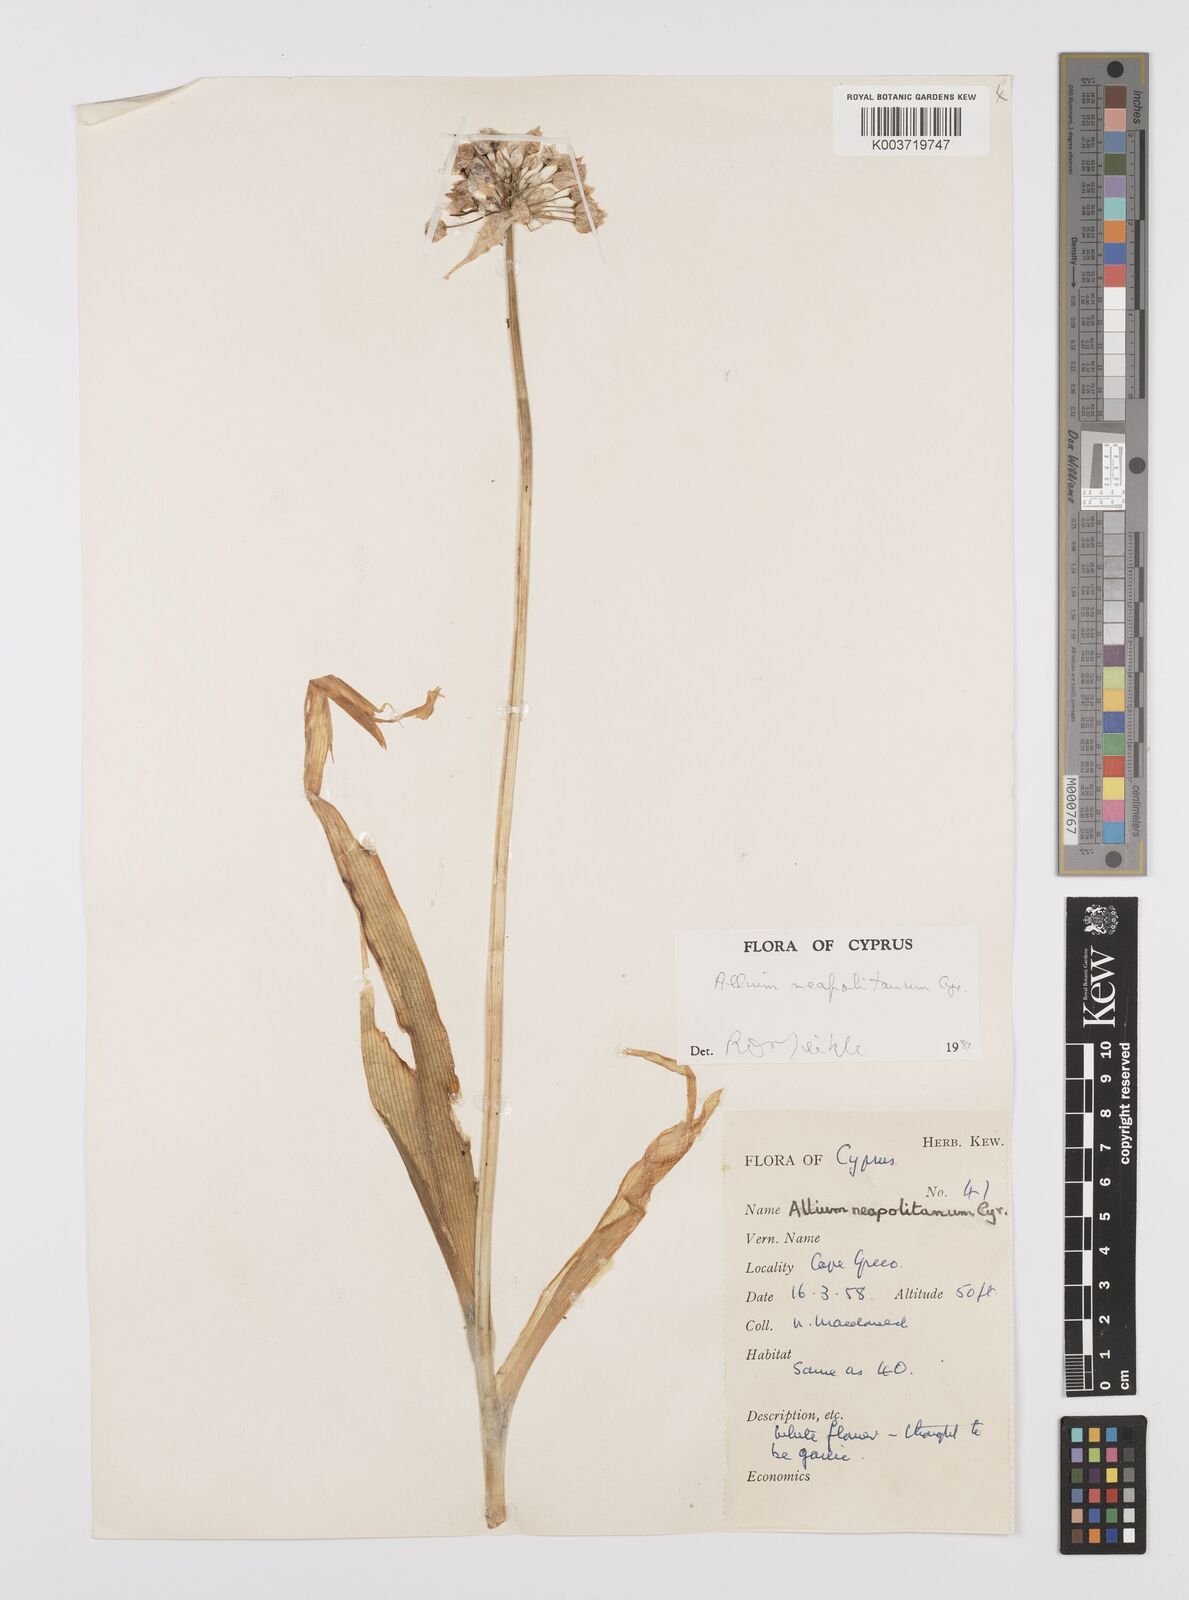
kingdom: Plantae
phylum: Tracheophyta
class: Liliopsida
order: Asparagales
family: Amaryllidaceae
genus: Allium
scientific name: Allium neapolitanum
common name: Neapolitan garlic
